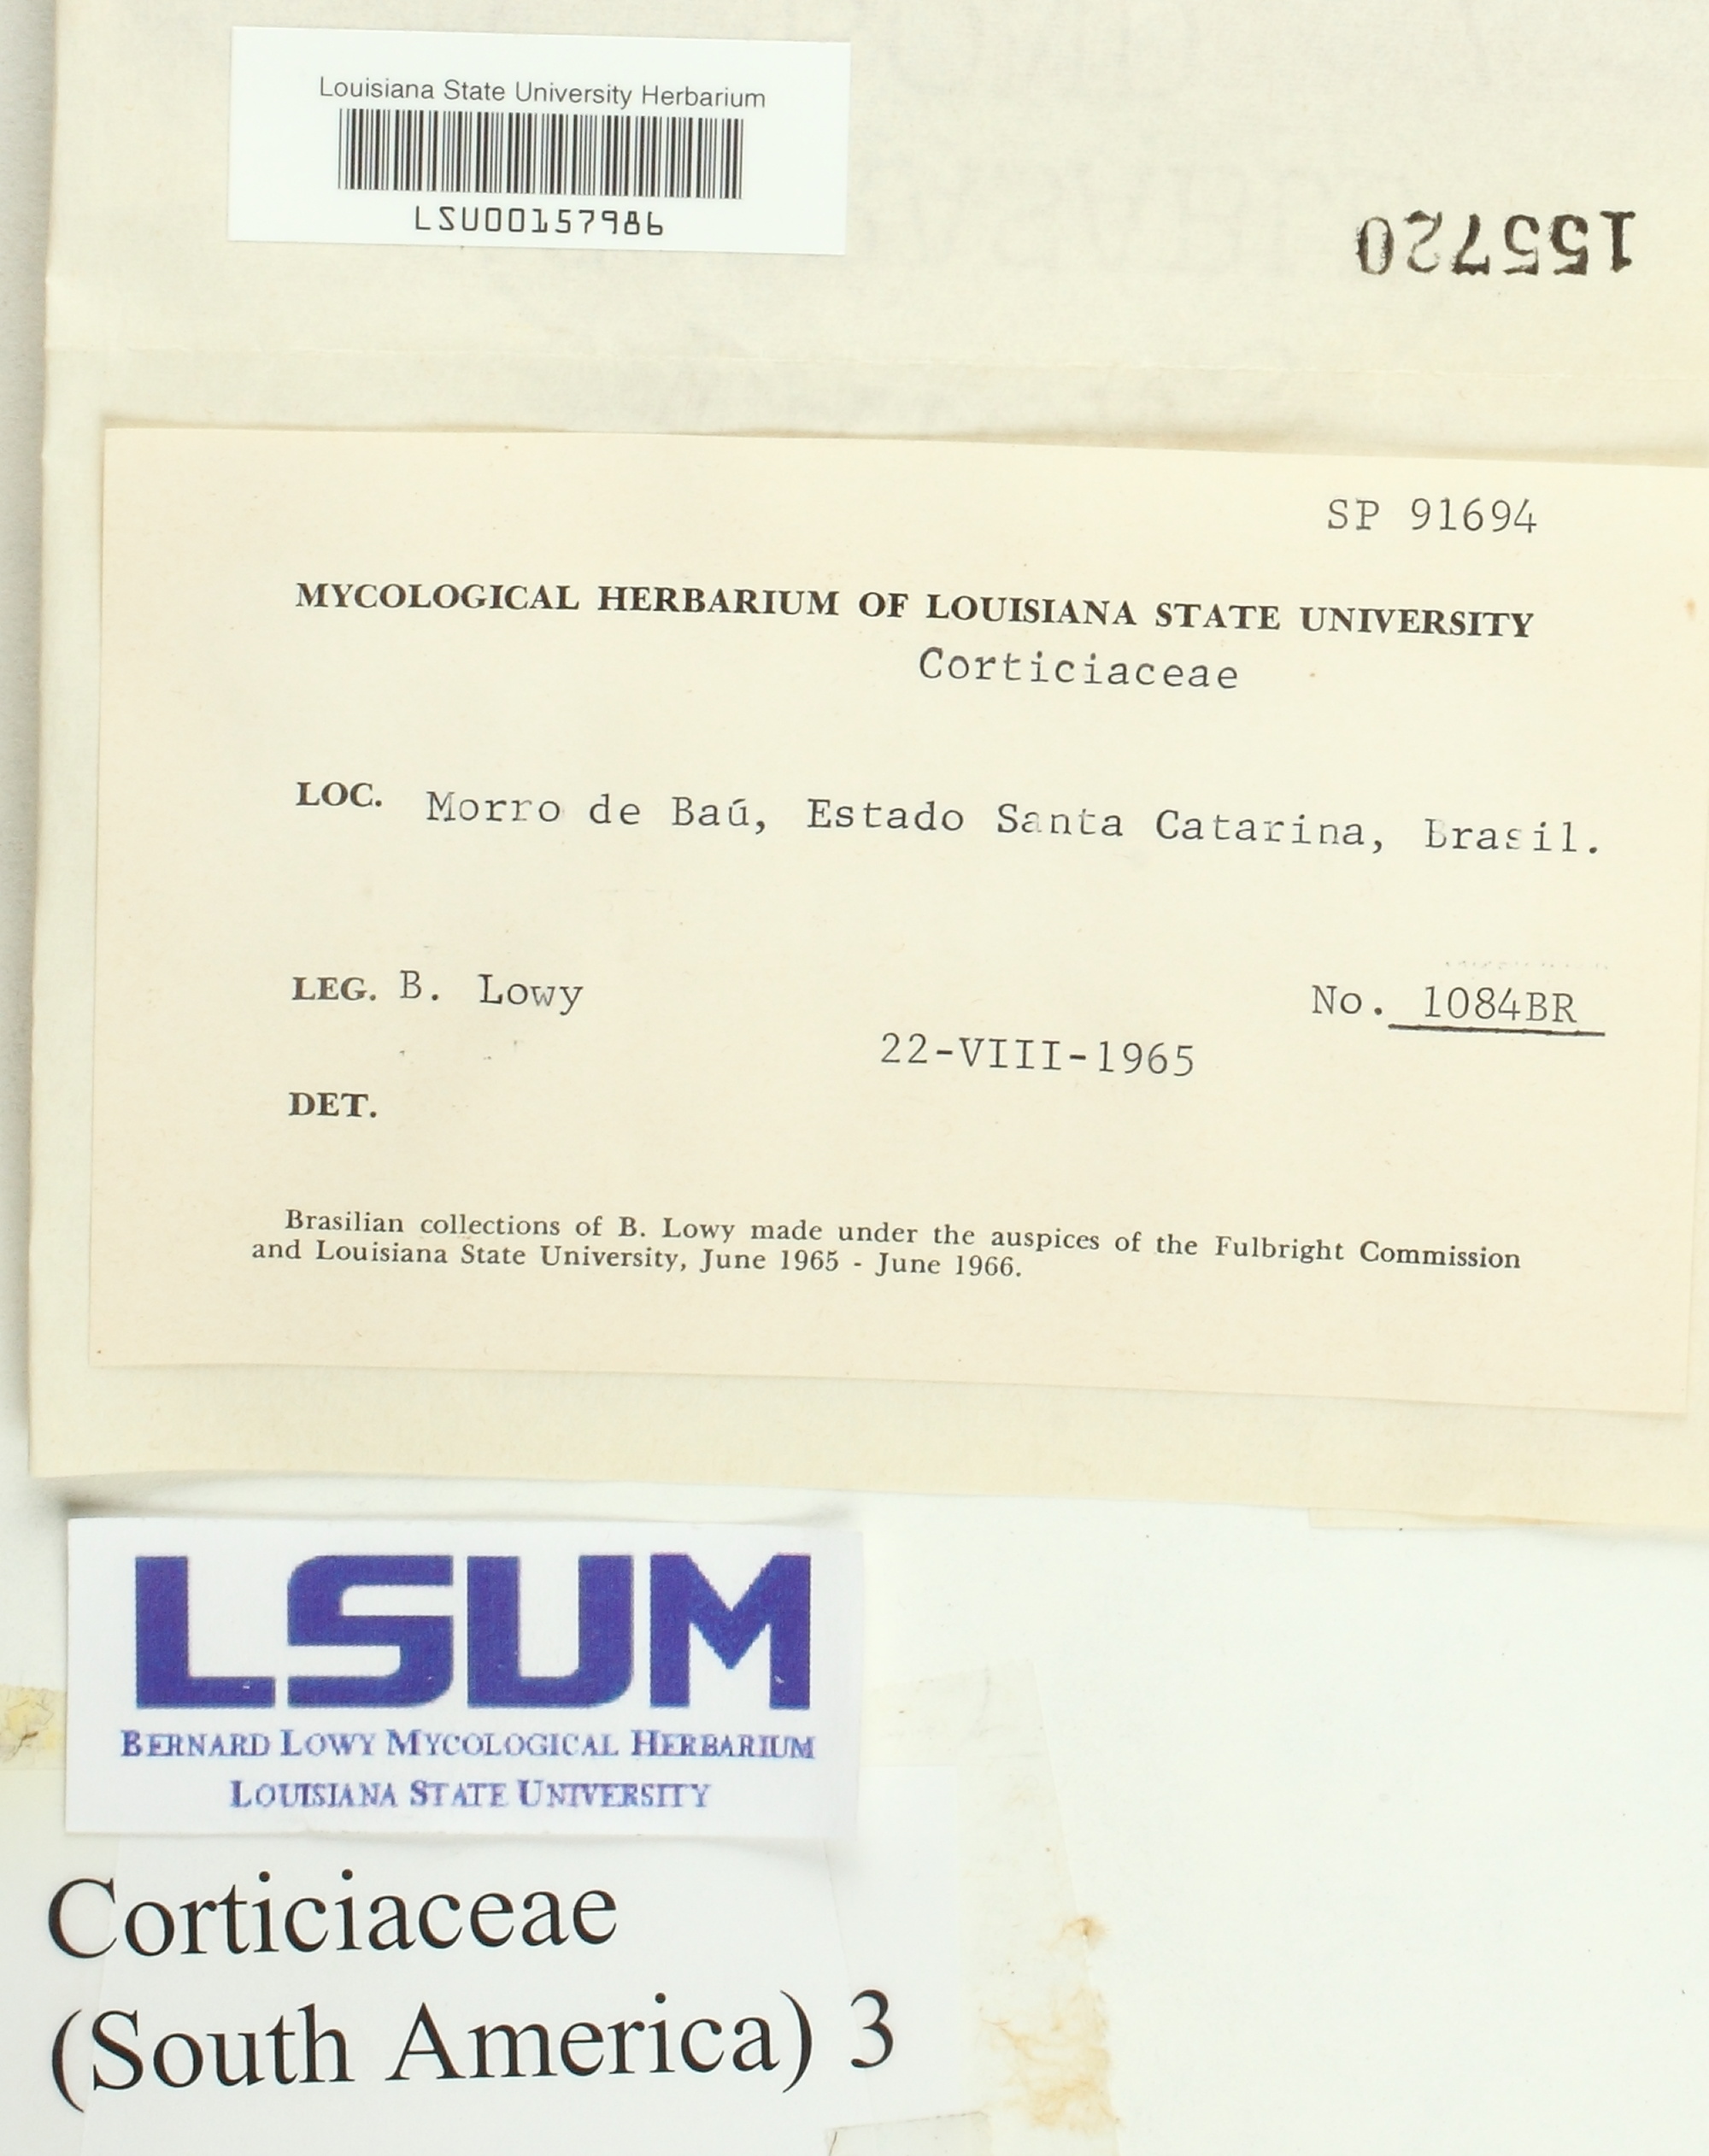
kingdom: Fungi
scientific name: Fungi
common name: Fungi
